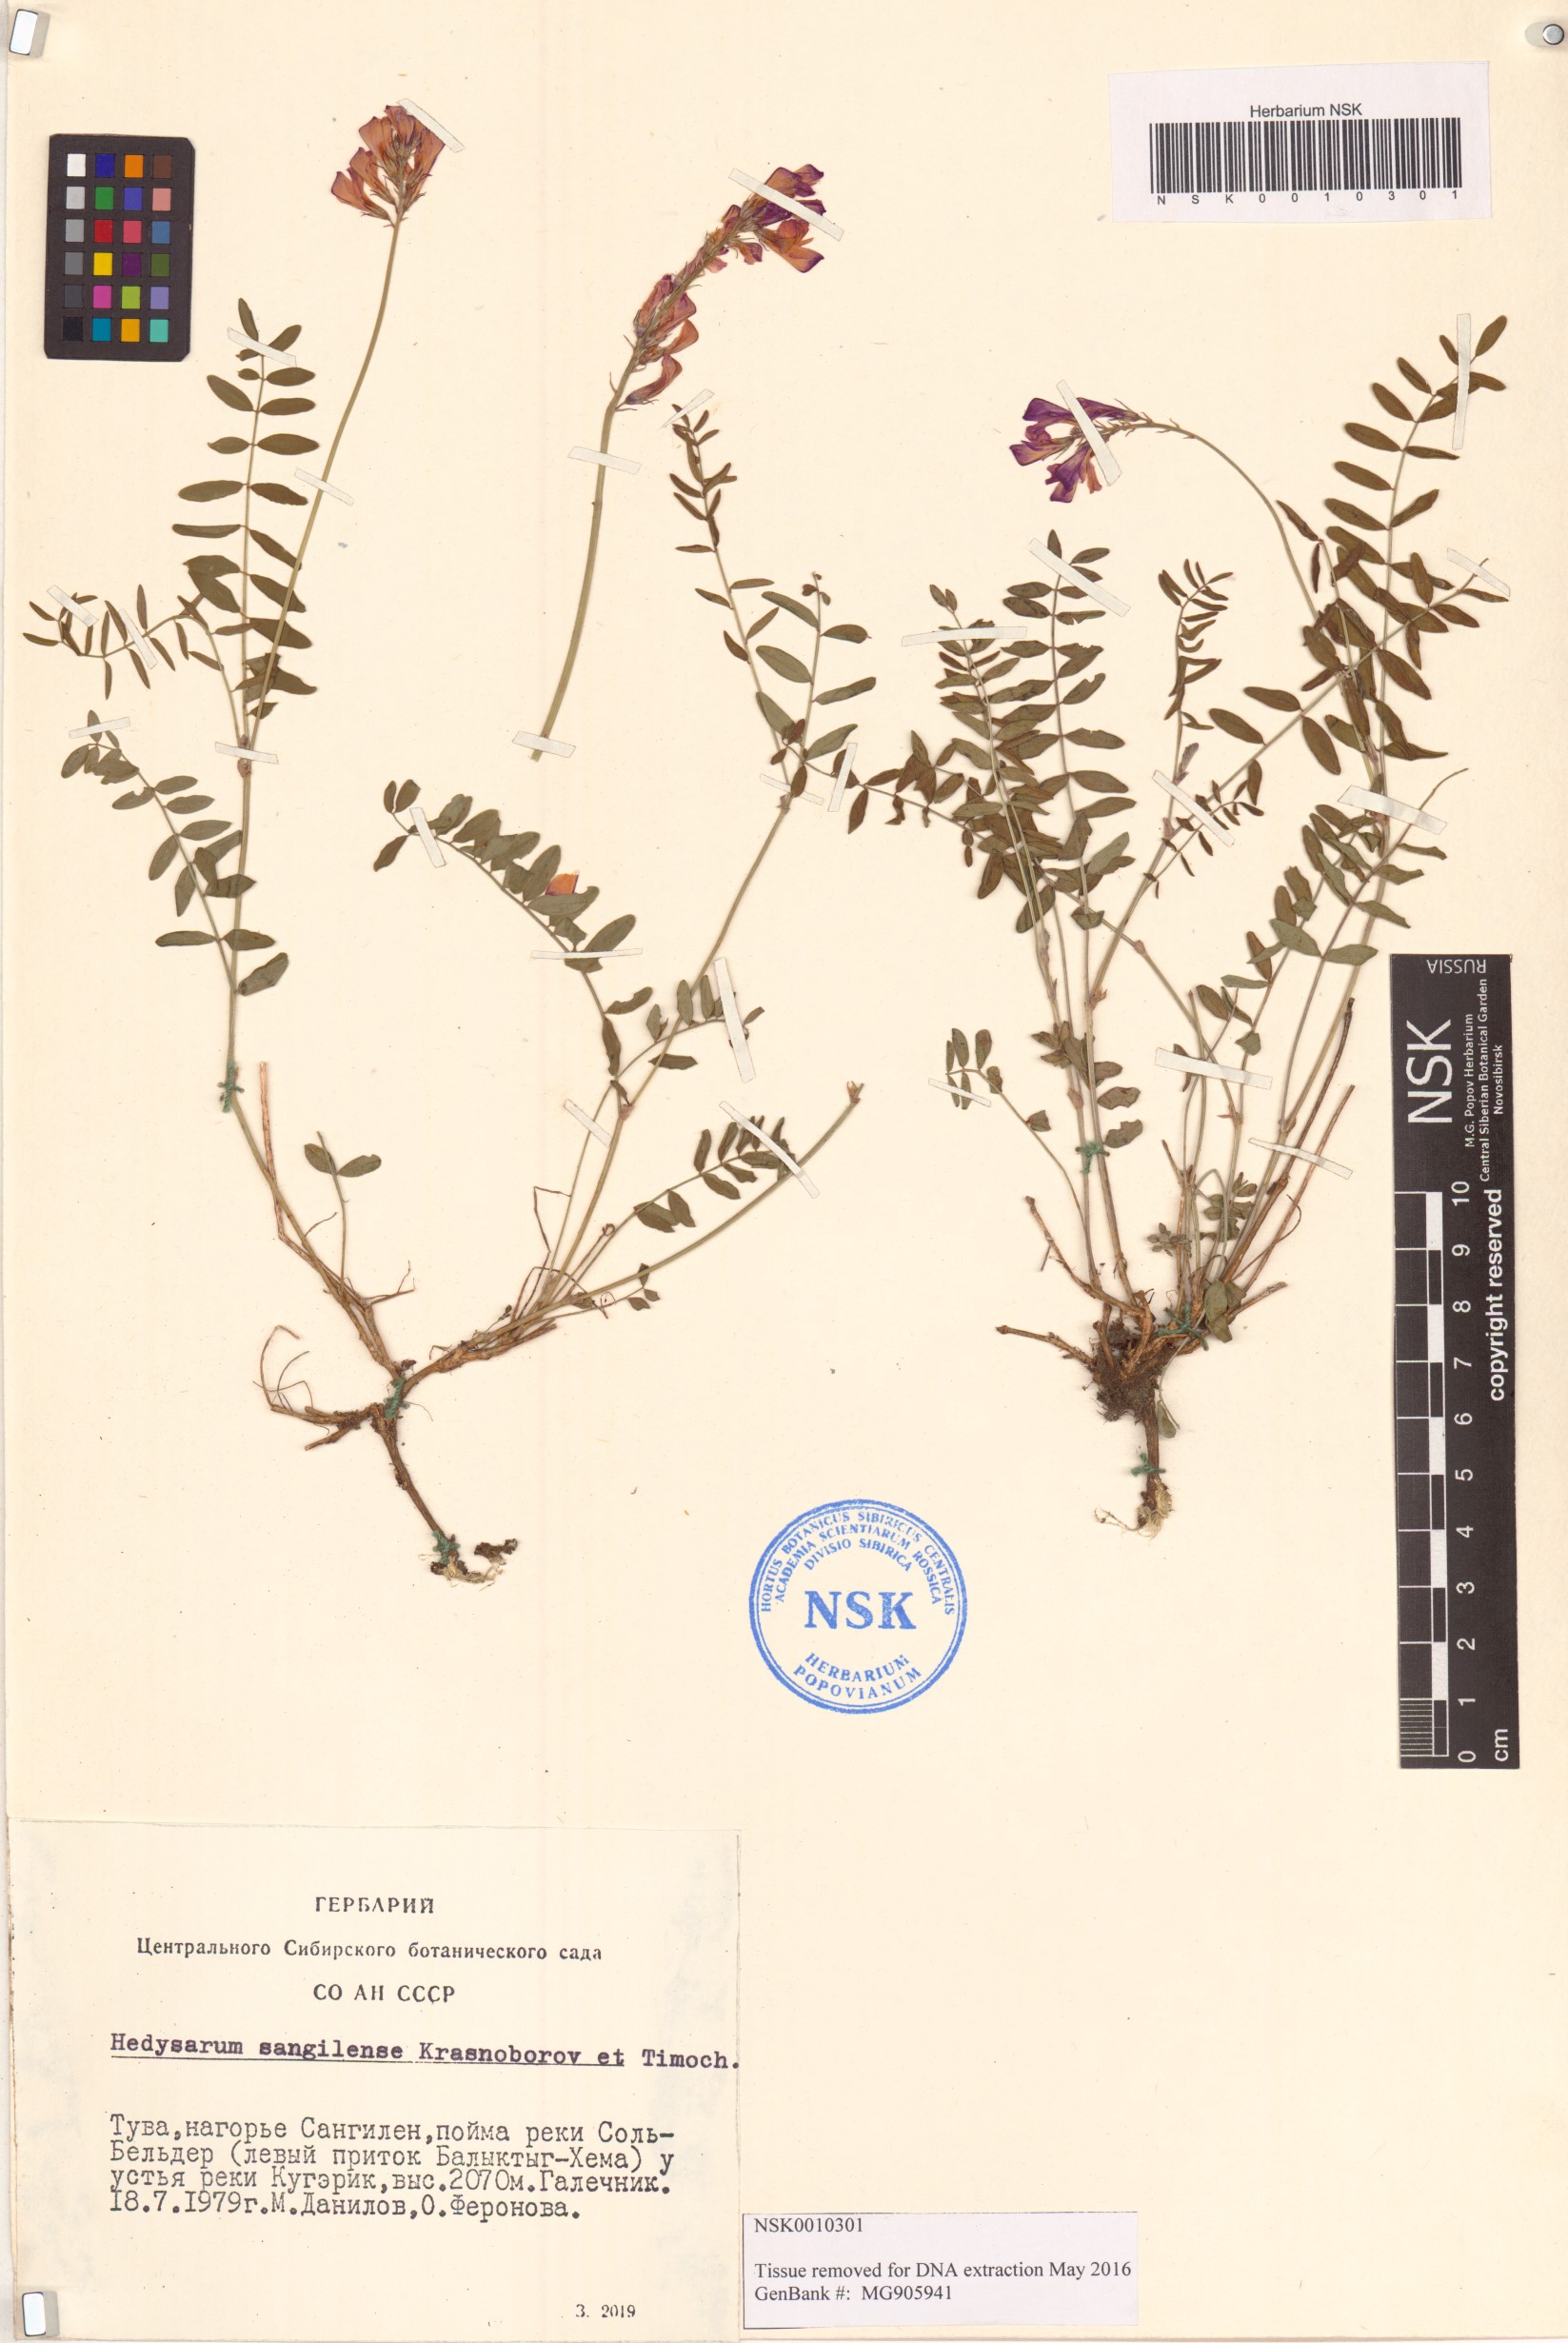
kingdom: Plantae
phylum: Tracheophyta
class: Magnoliopsida
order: Fabales
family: Fabaceae
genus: Hedysarum
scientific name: Hedysarum sangilense
